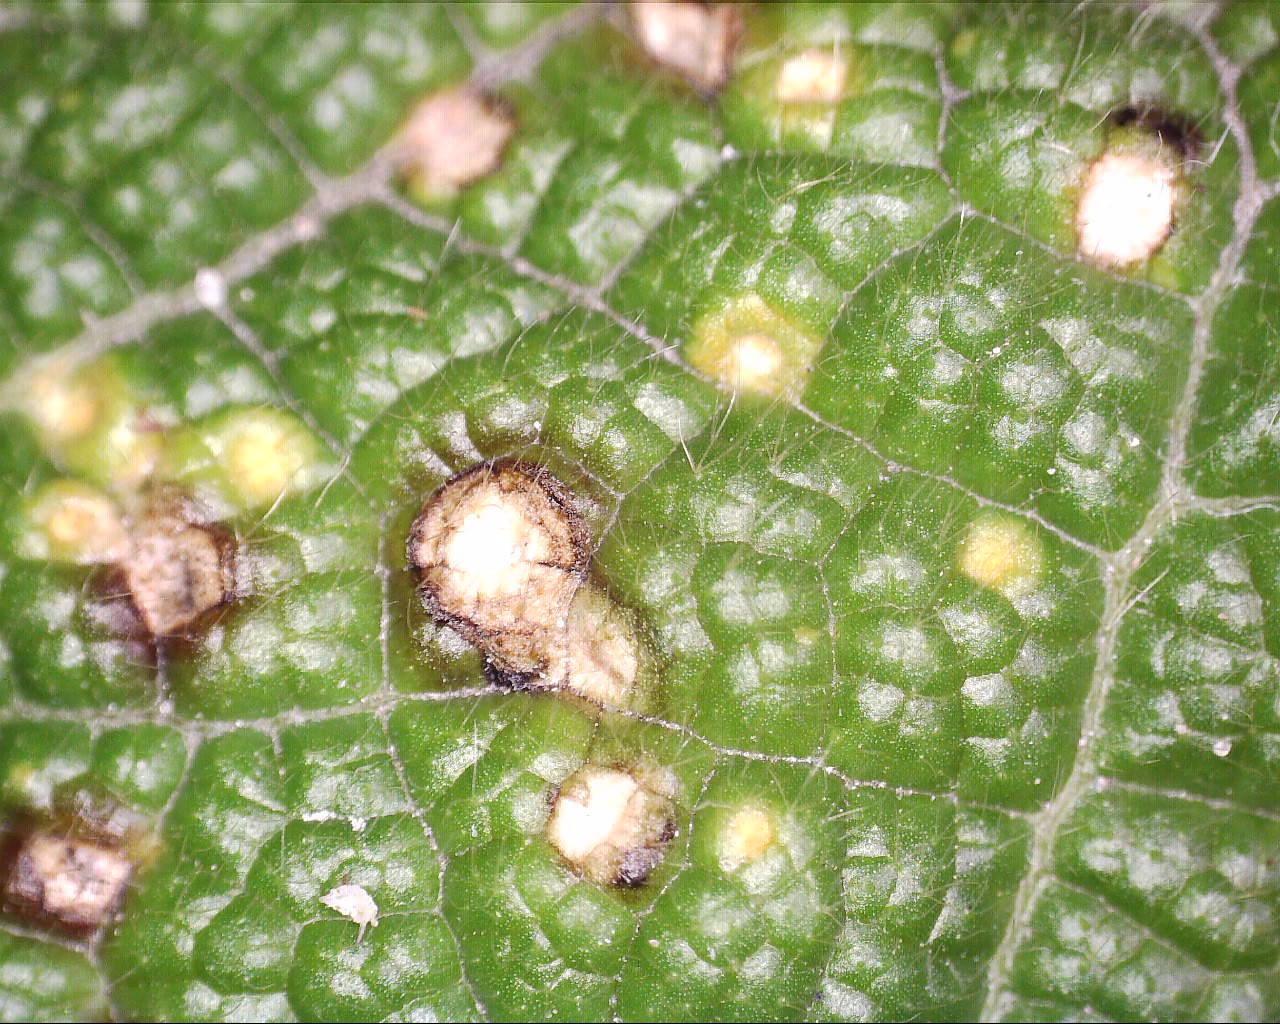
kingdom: Fungi
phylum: Basidiomycota
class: Pucciniomycetes
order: Pucciniales
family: Pucciniaceae
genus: Puccinia
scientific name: Puccinia malvacearum
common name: stokrose-tvecellerust
